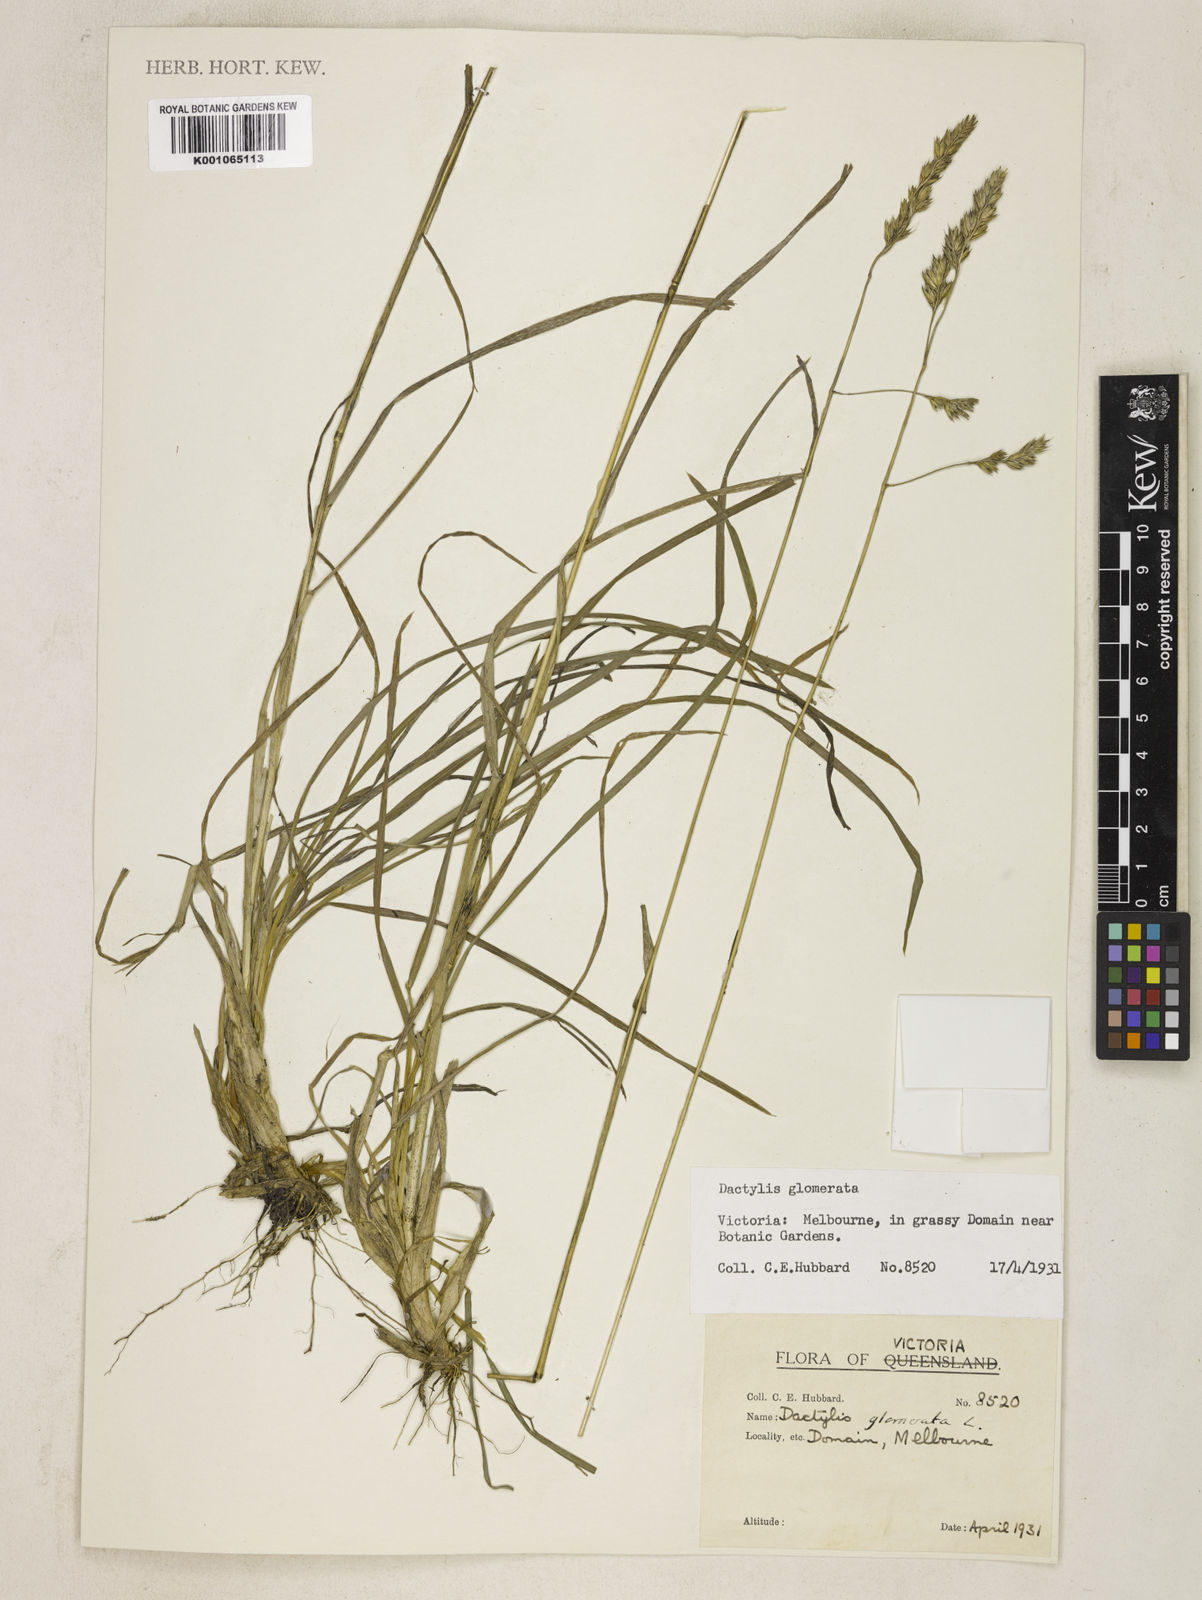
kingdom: Plantae
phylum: Tracheophyta
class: Liliopsida
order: Poales
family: Poaceae
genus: Dactylis
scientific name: Dactylis glomerata
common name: Orchardgrass
